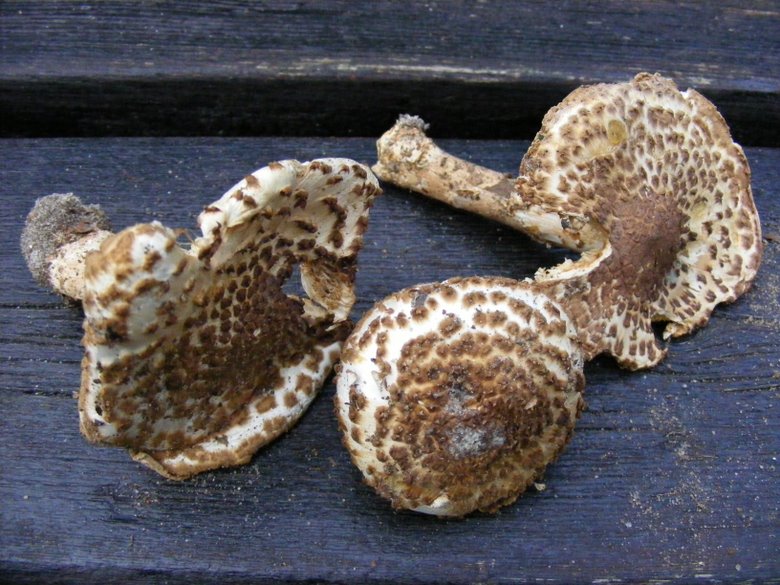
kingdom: Fungi
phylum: Basidiomycota
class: Agaricomycetes
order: Agaricales
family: Agaricaceae
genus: Echinoderma
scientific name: Echinoderma asperum
